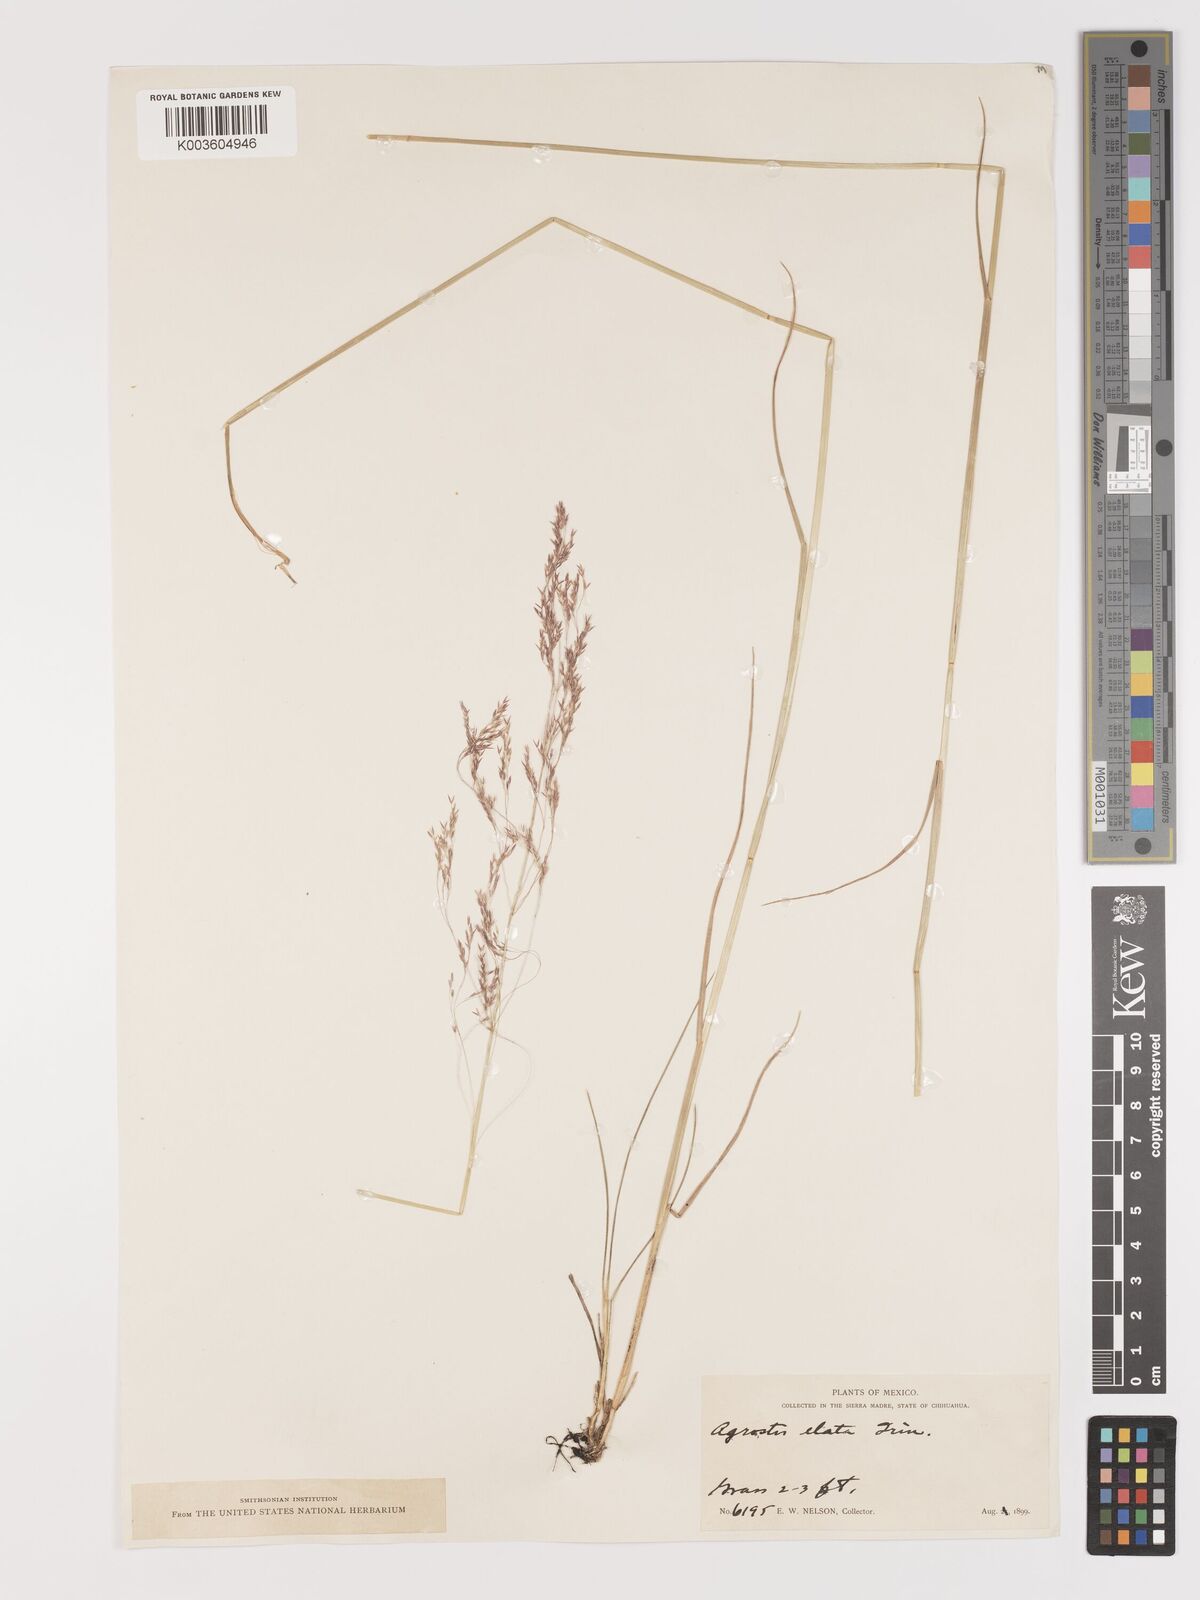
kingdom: Plantae
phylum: Tracheophyta
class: Liliopsida
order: Poales
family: Poaceae
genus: Agrostis
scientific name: Agrostis perennans
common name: Autumn bent
